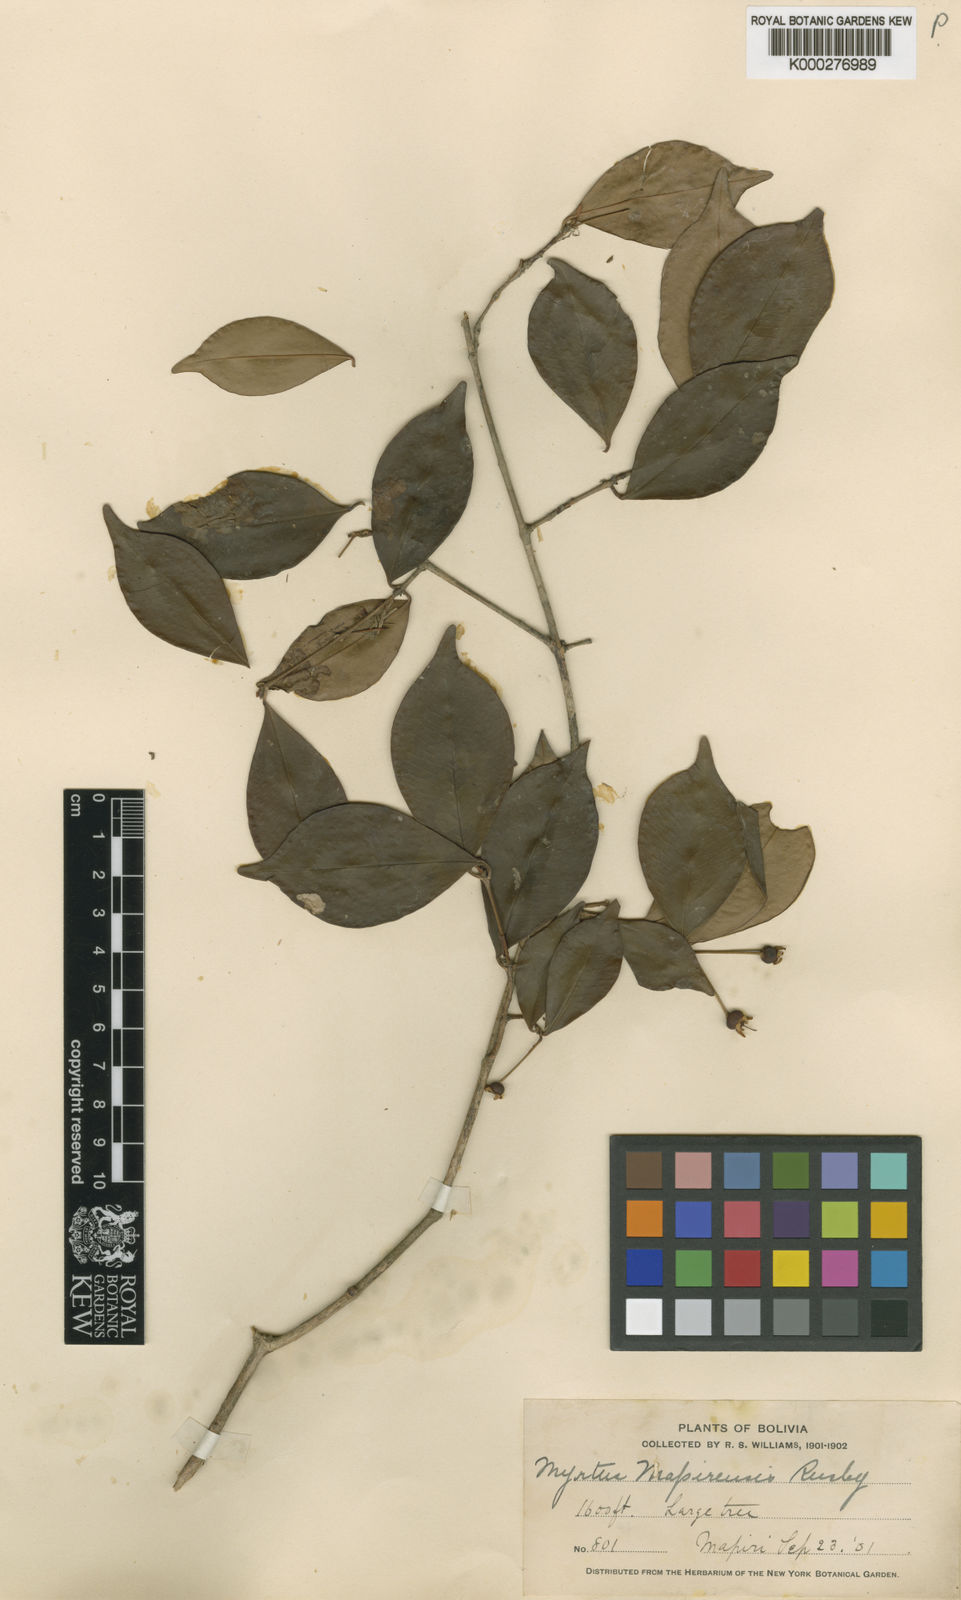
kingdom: Plantae
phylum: Tracheophyta
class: Magnoliopsida
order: Myrtales
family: Myrtaceae
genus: Eugenia
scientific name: Eugenia
